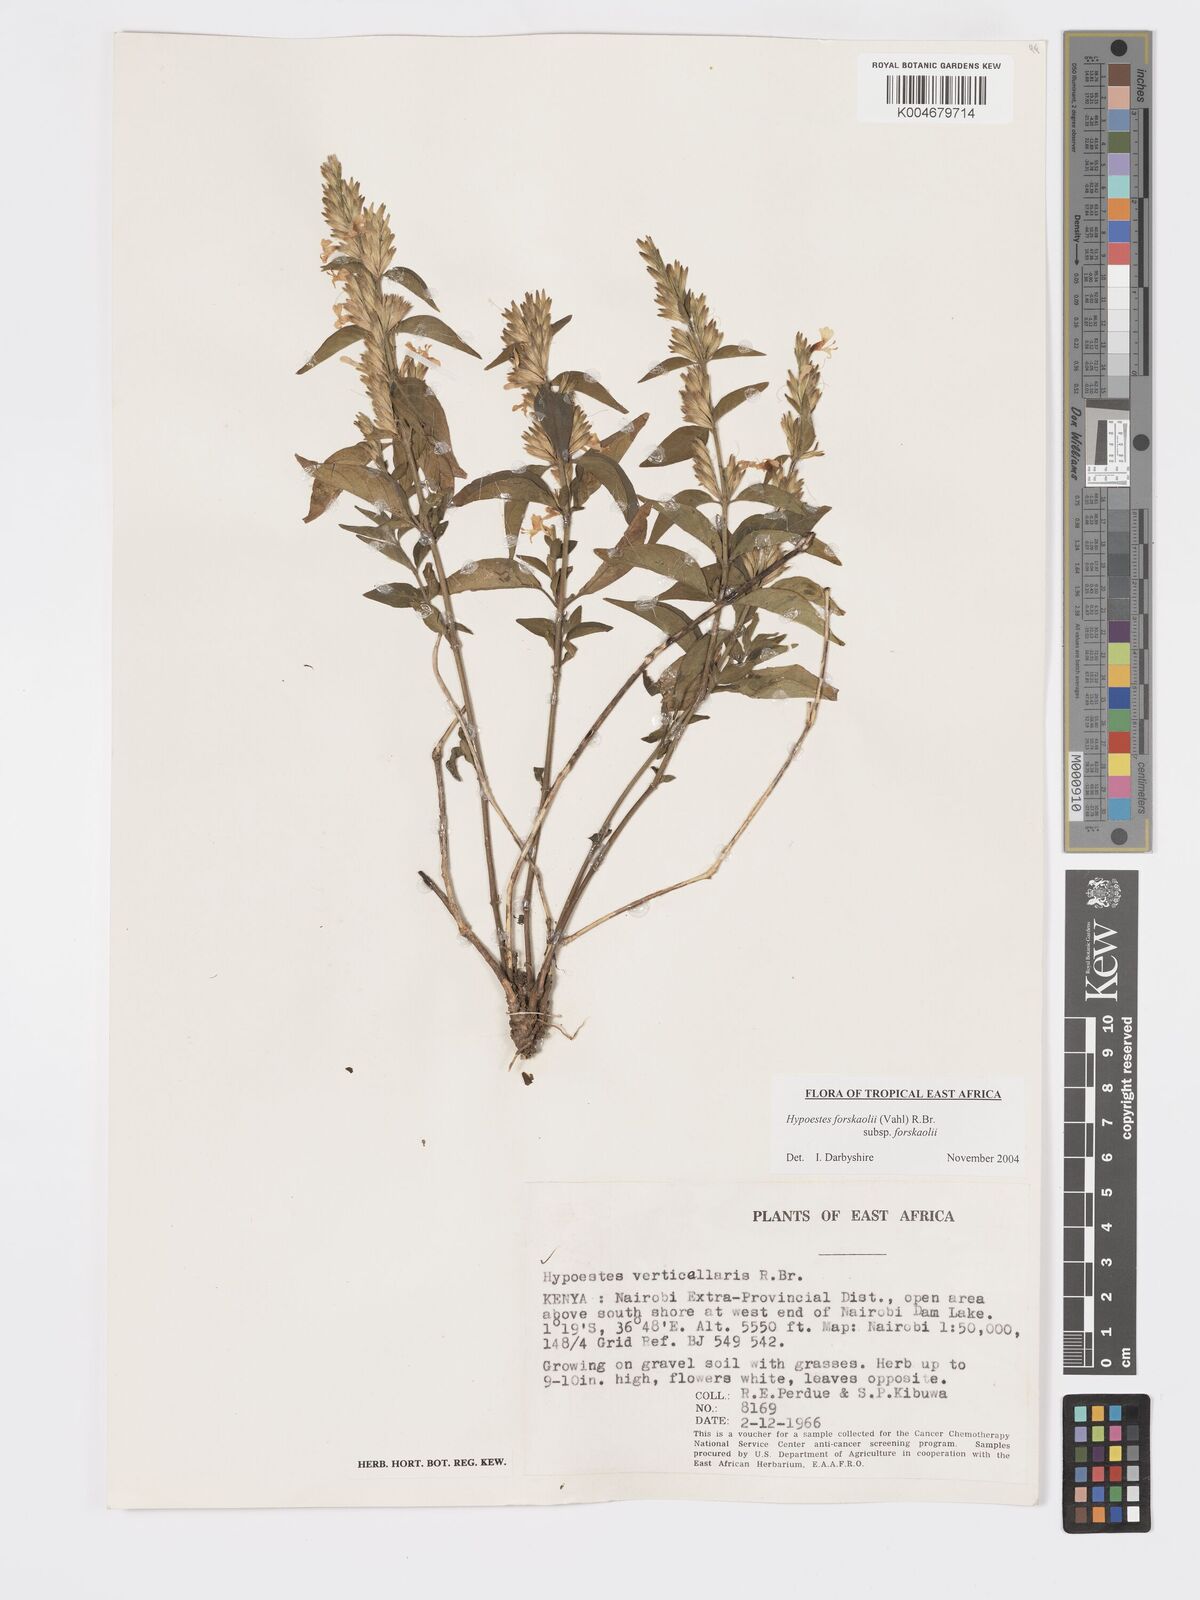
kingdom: Plantae
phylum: Tracheophyta
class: Magnoliopsida
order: Lamiales
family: Acanthaceae
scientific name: Acanthaceae
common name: Acanthaceae
